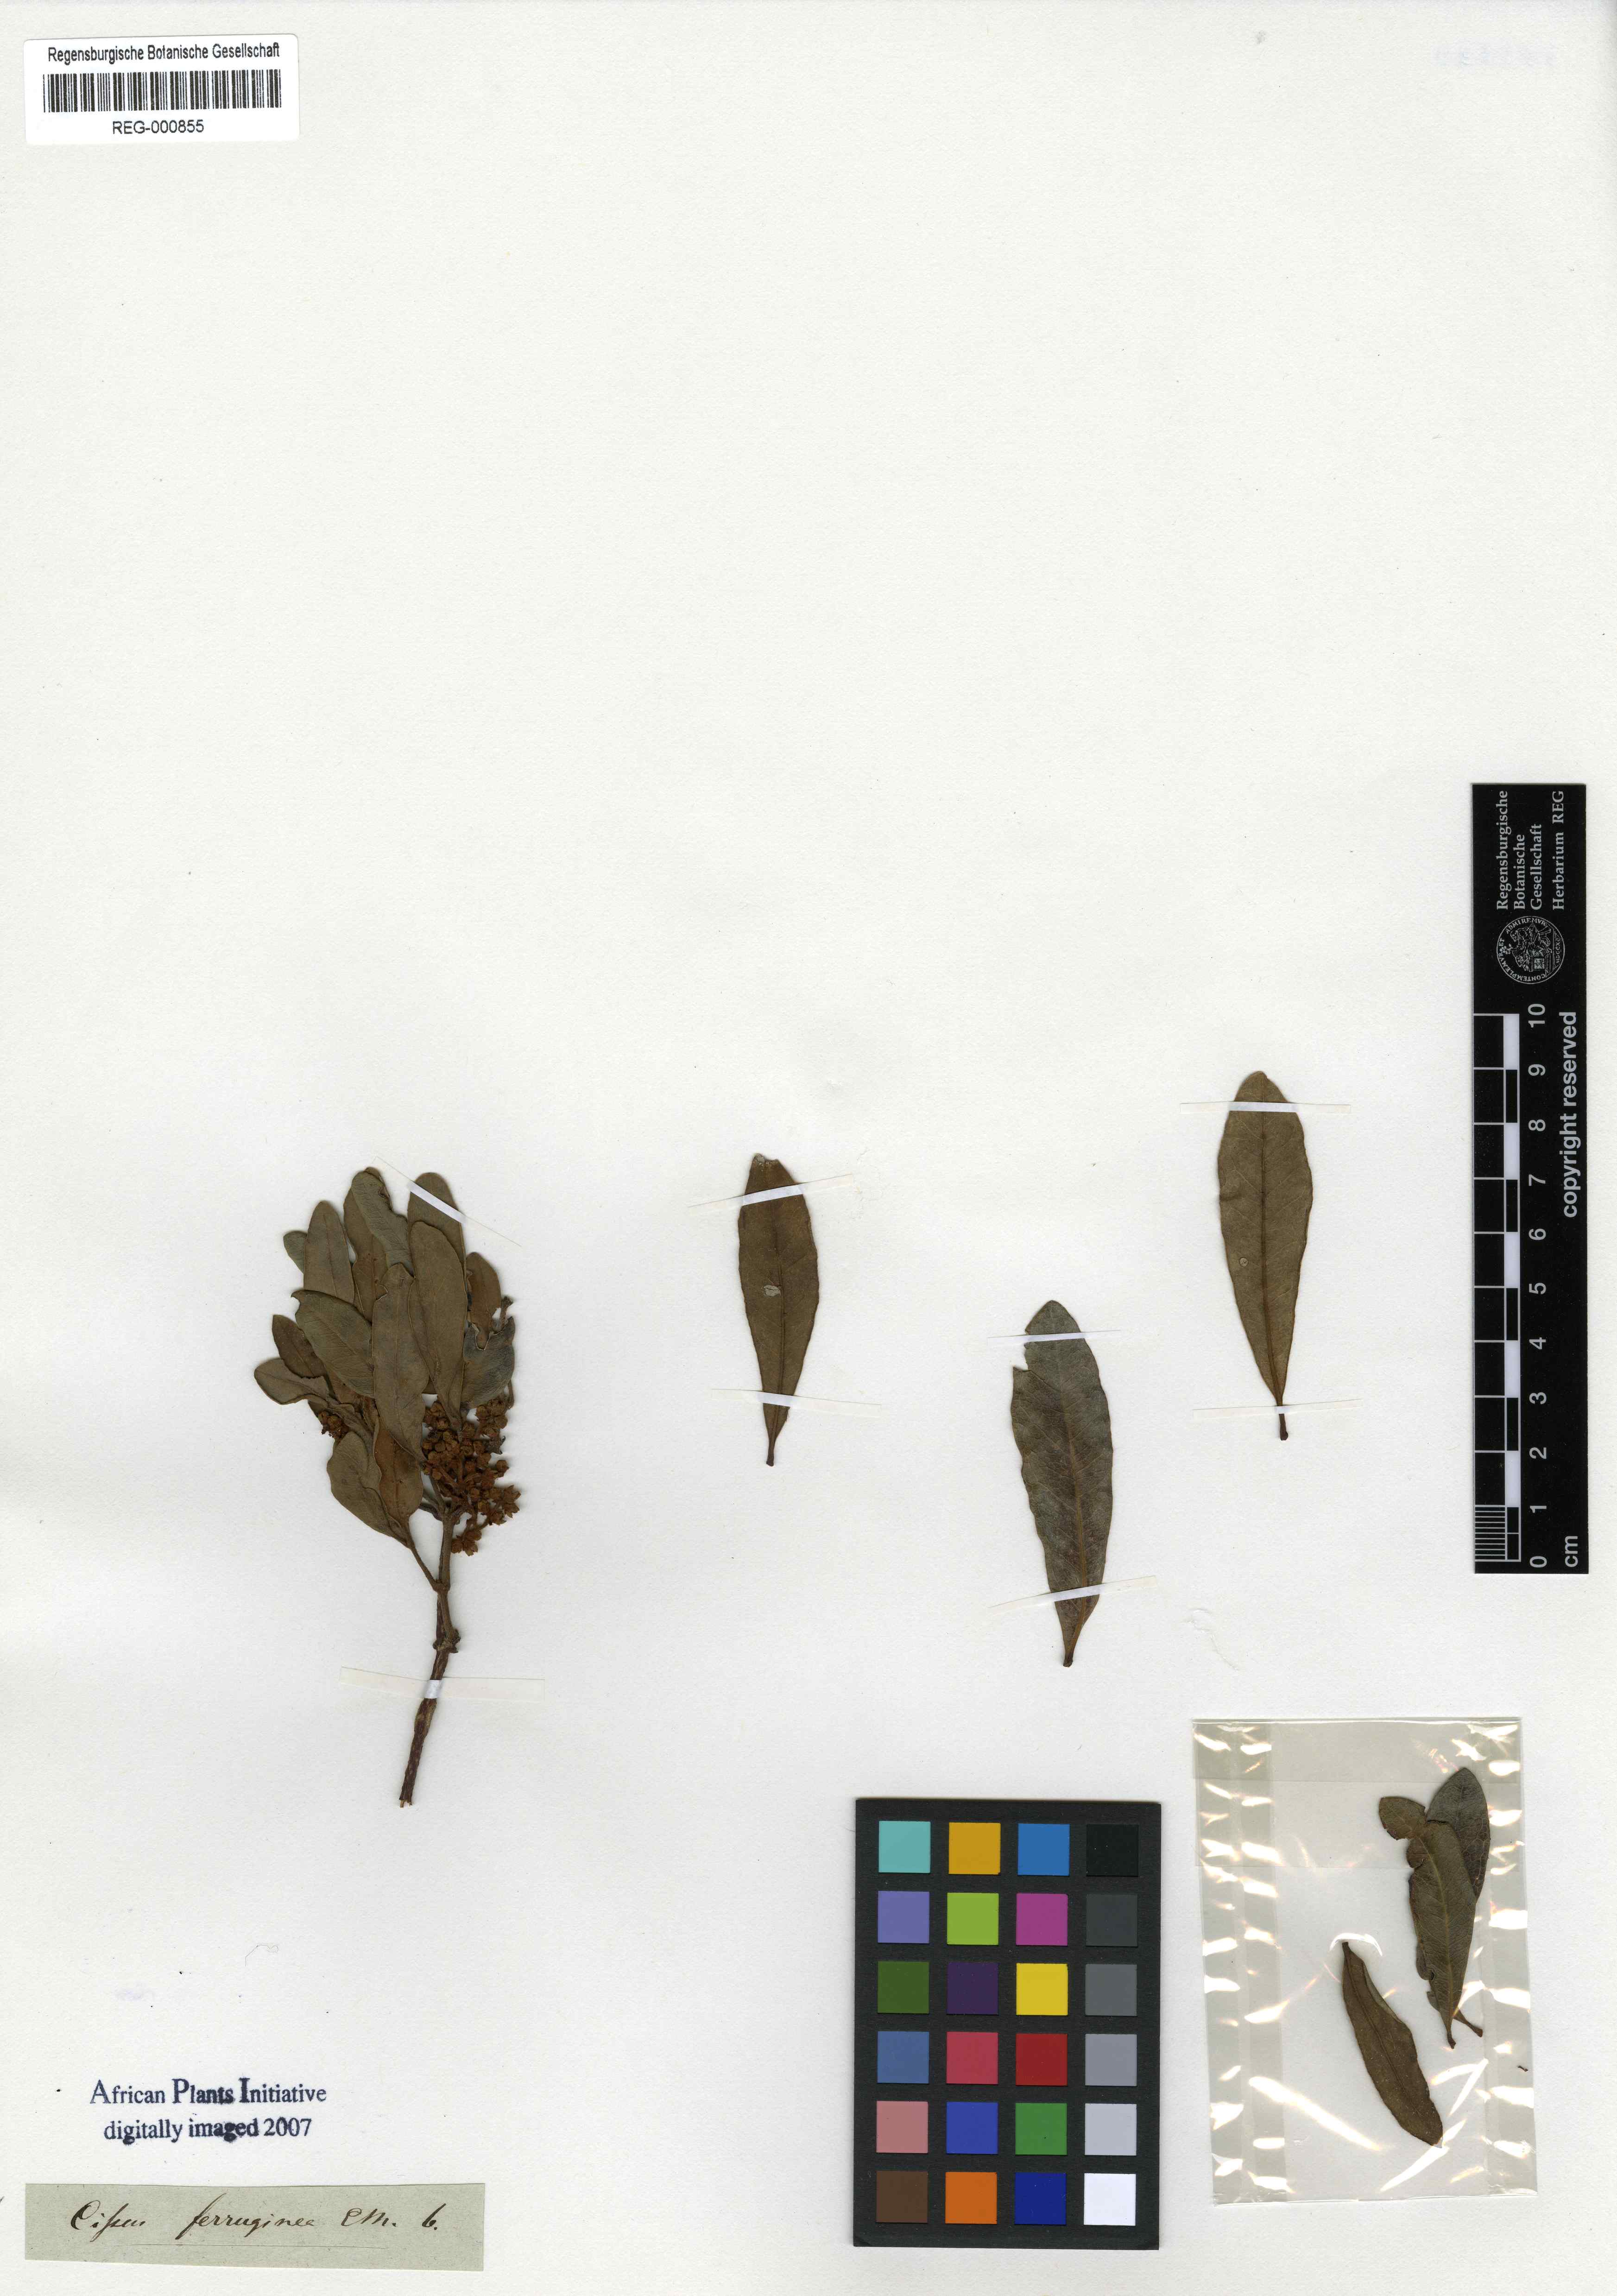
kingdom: Plantae
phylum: Tracheophyta
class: Magnoliopsida
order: Vitales
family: Vitaceae
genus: Rhoicissus
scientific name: Rhoicissus digitata
